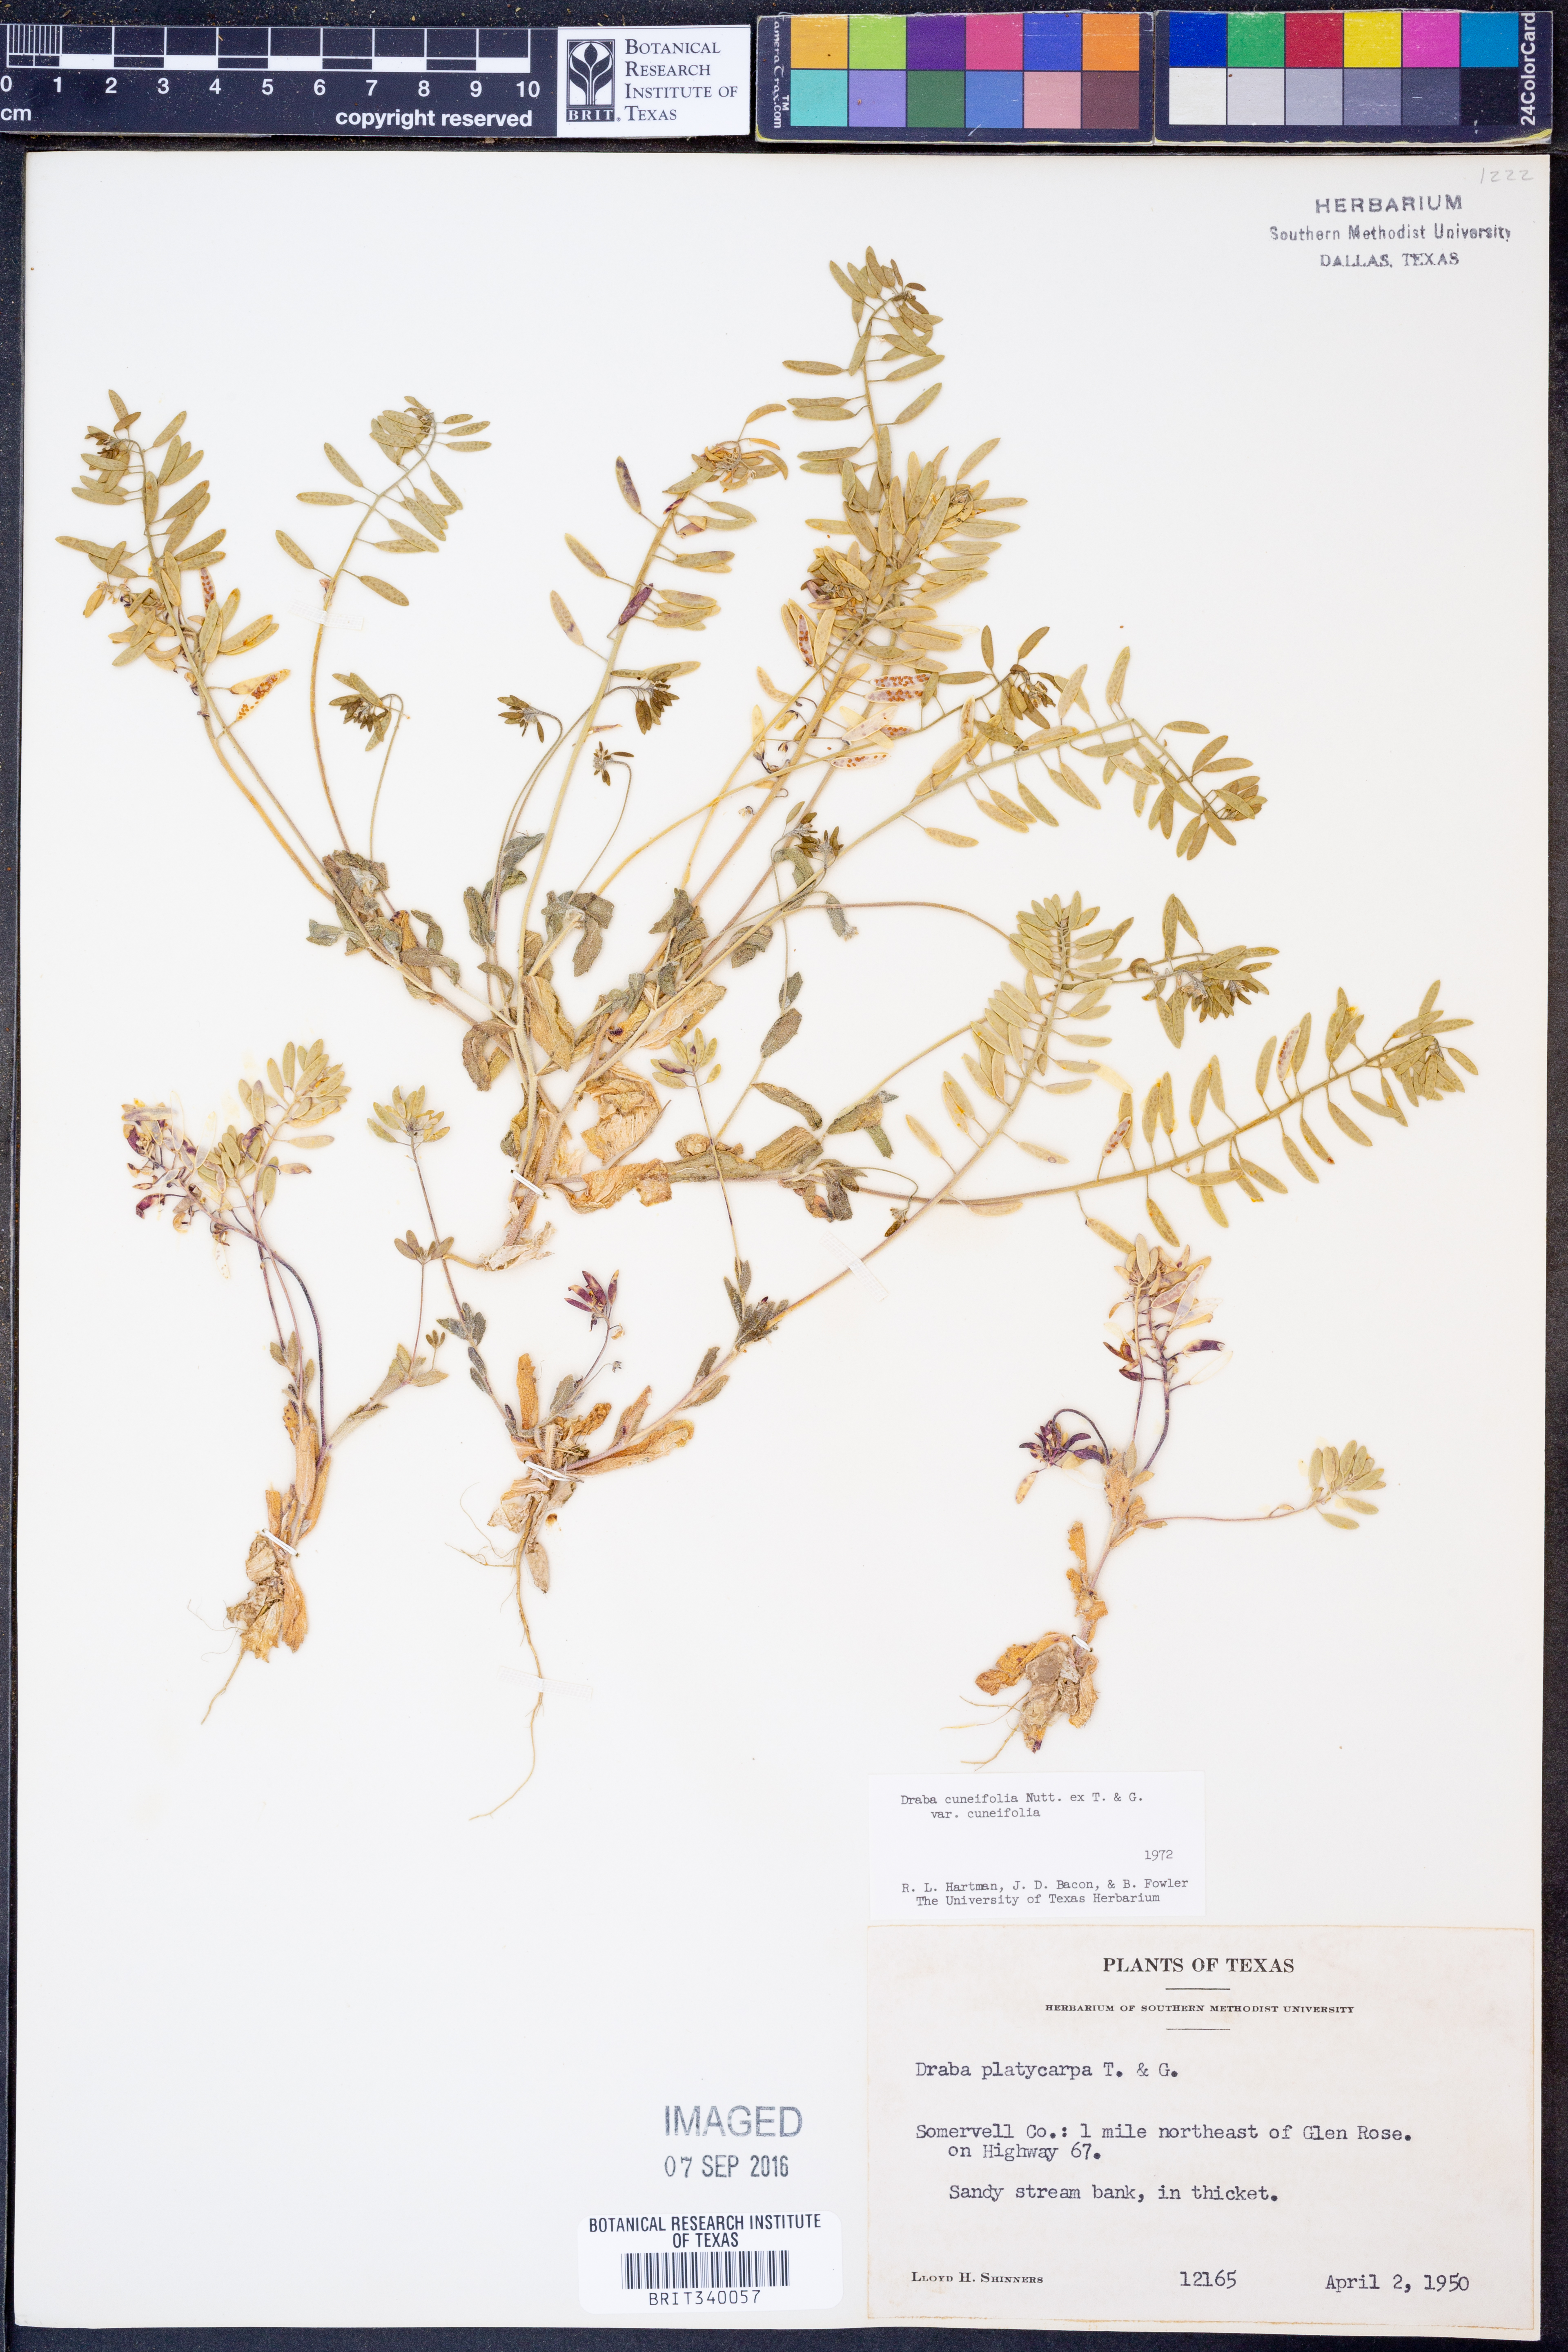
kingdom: Plantae
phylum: Tracheophyta
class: Magnoliopsida
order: Brassicales
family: Brassicaceae
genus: Tomostima
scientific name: Tomostima cuneifolia
